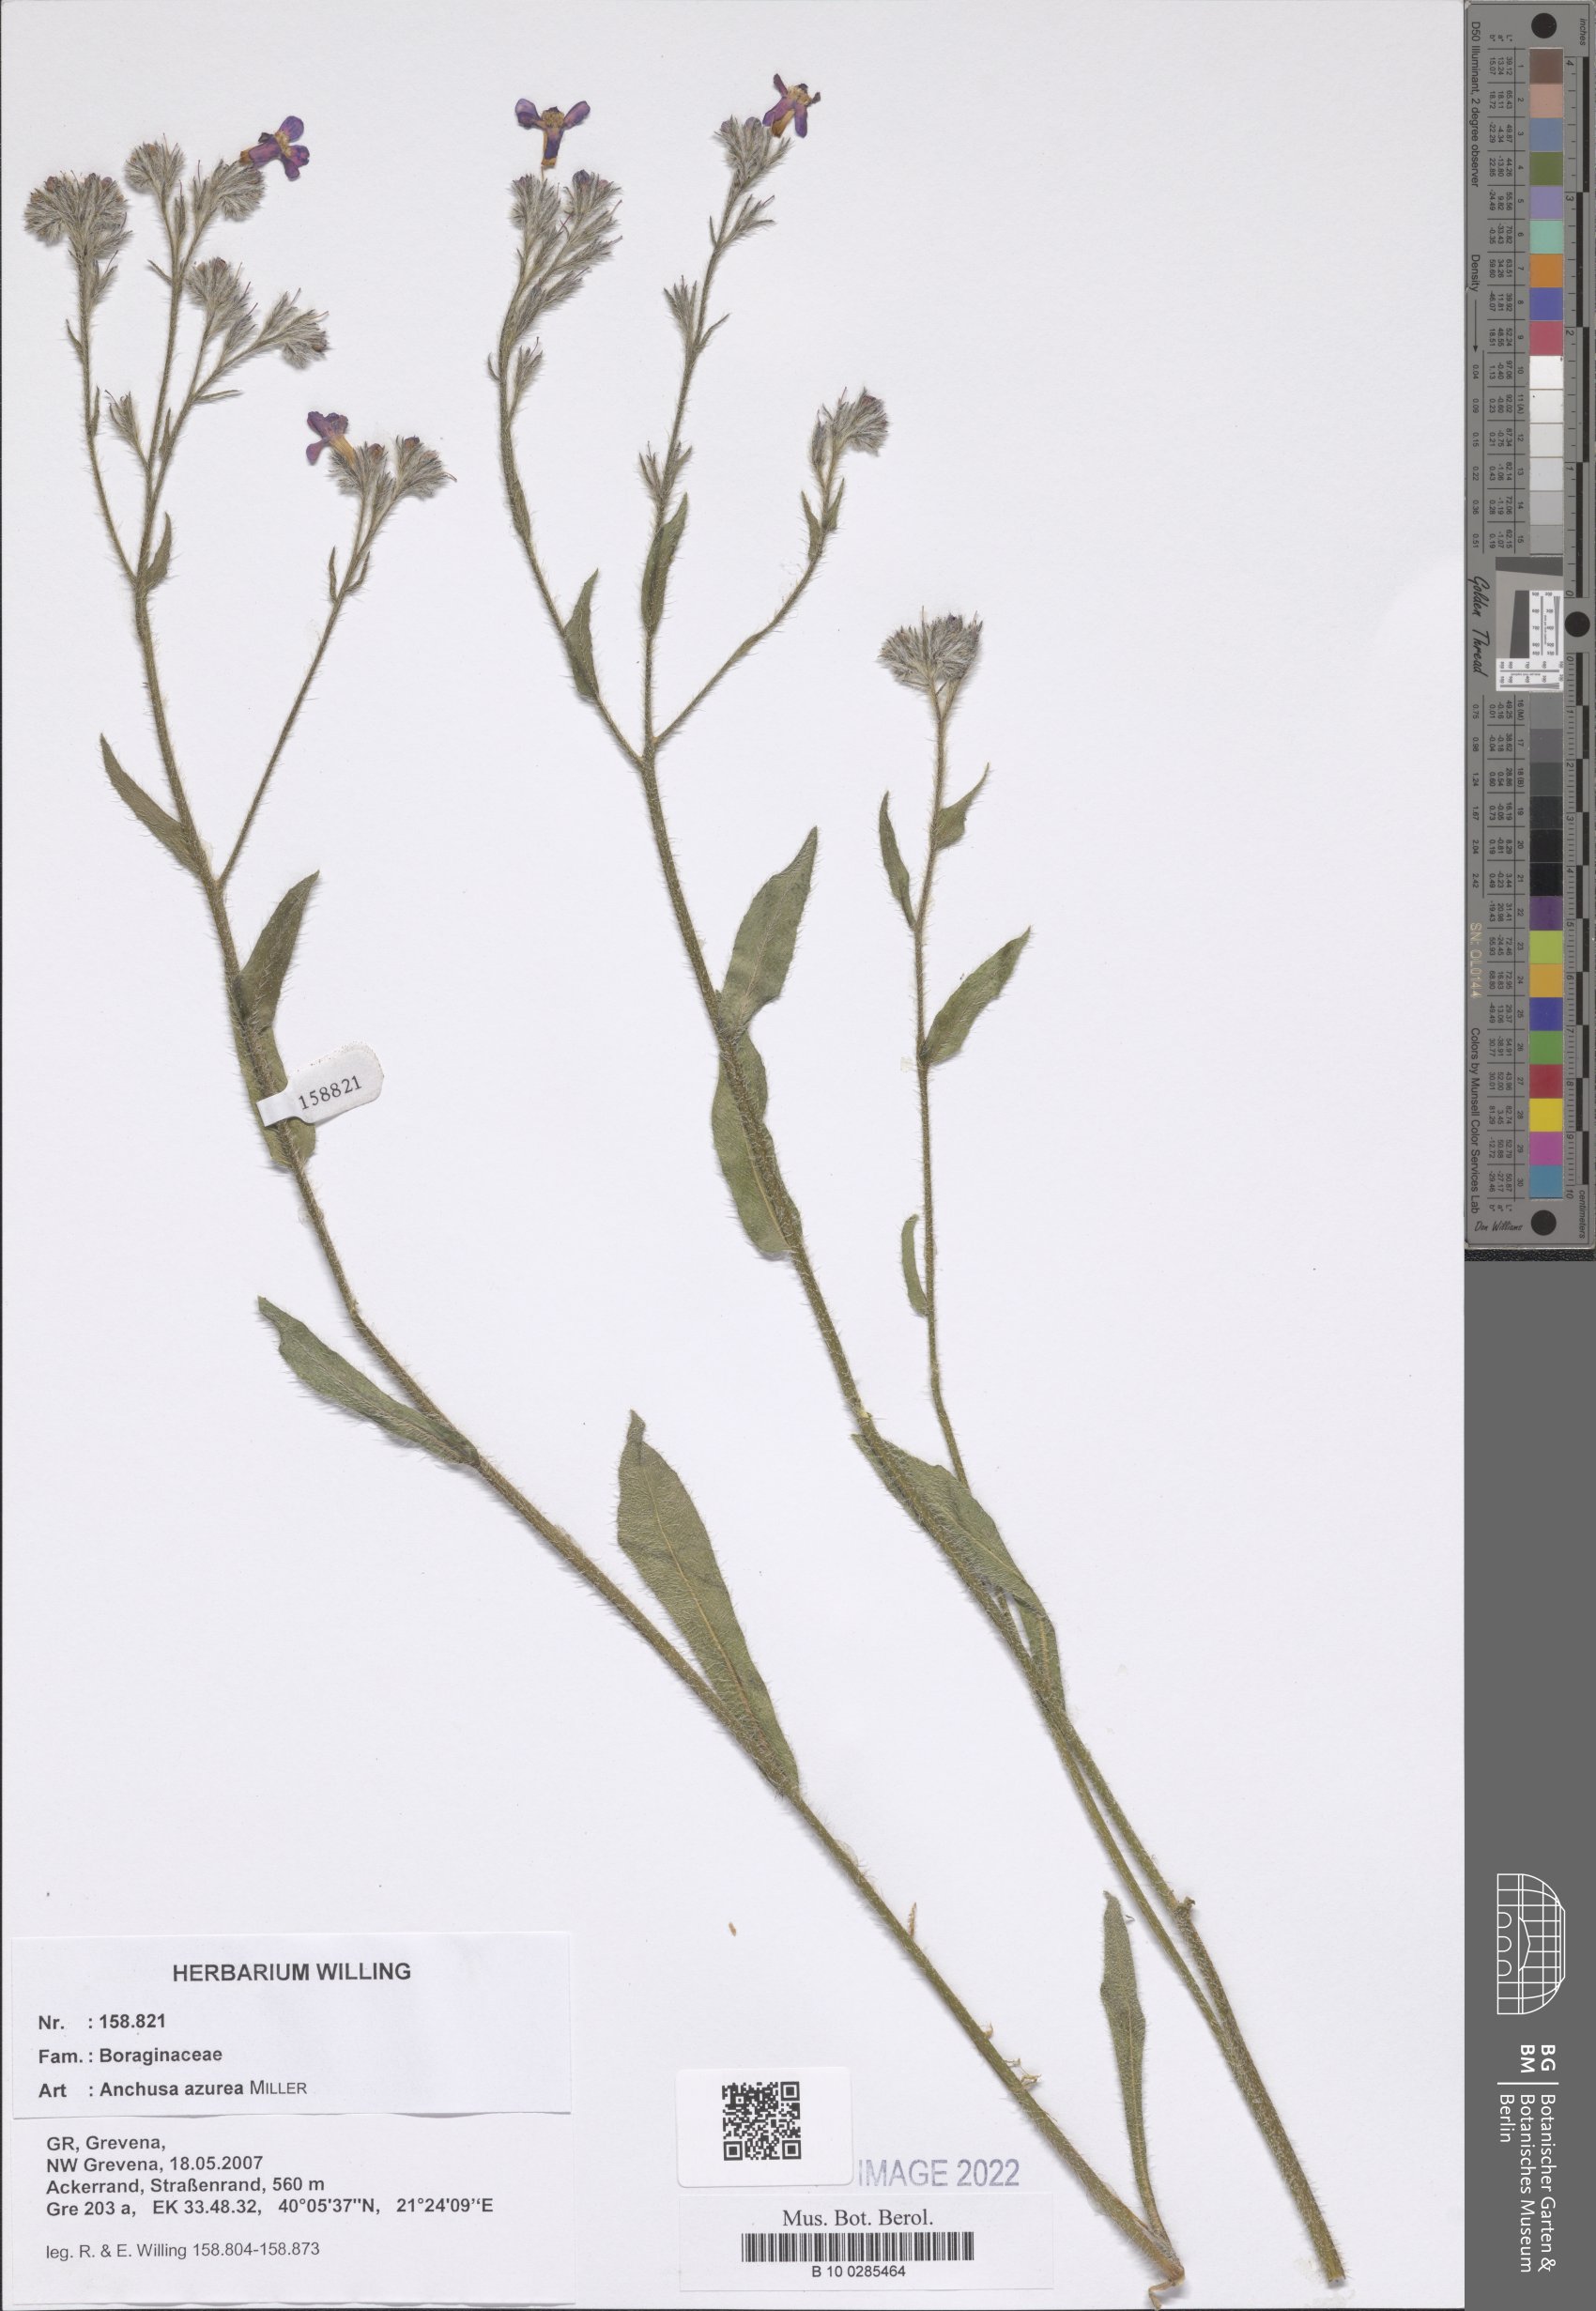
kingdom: Plantae
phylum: Tracheophyta
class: Magnoliopsida
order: Boraginales
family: Boraginaceae
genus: Anchusa
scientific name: Anchusa azurea
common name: Garden anchusa
